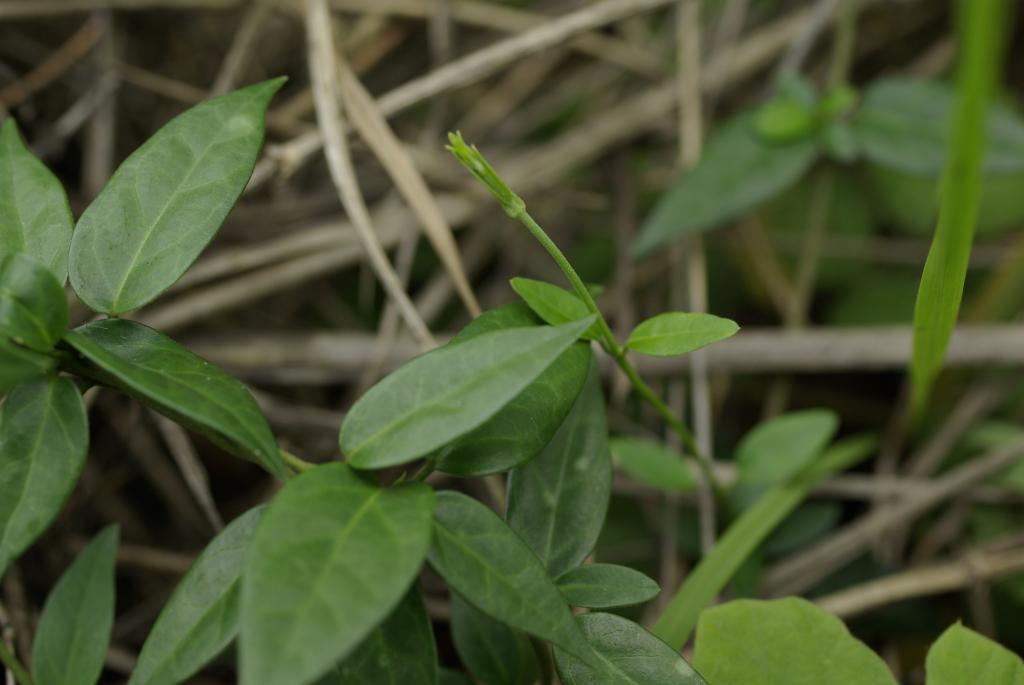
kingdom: Plantae
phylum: Tracheophyta
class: Magnoliopsida
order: Gentianales
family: Apocynaceae
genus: Gymnema
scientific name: Gymnema sylvestre
